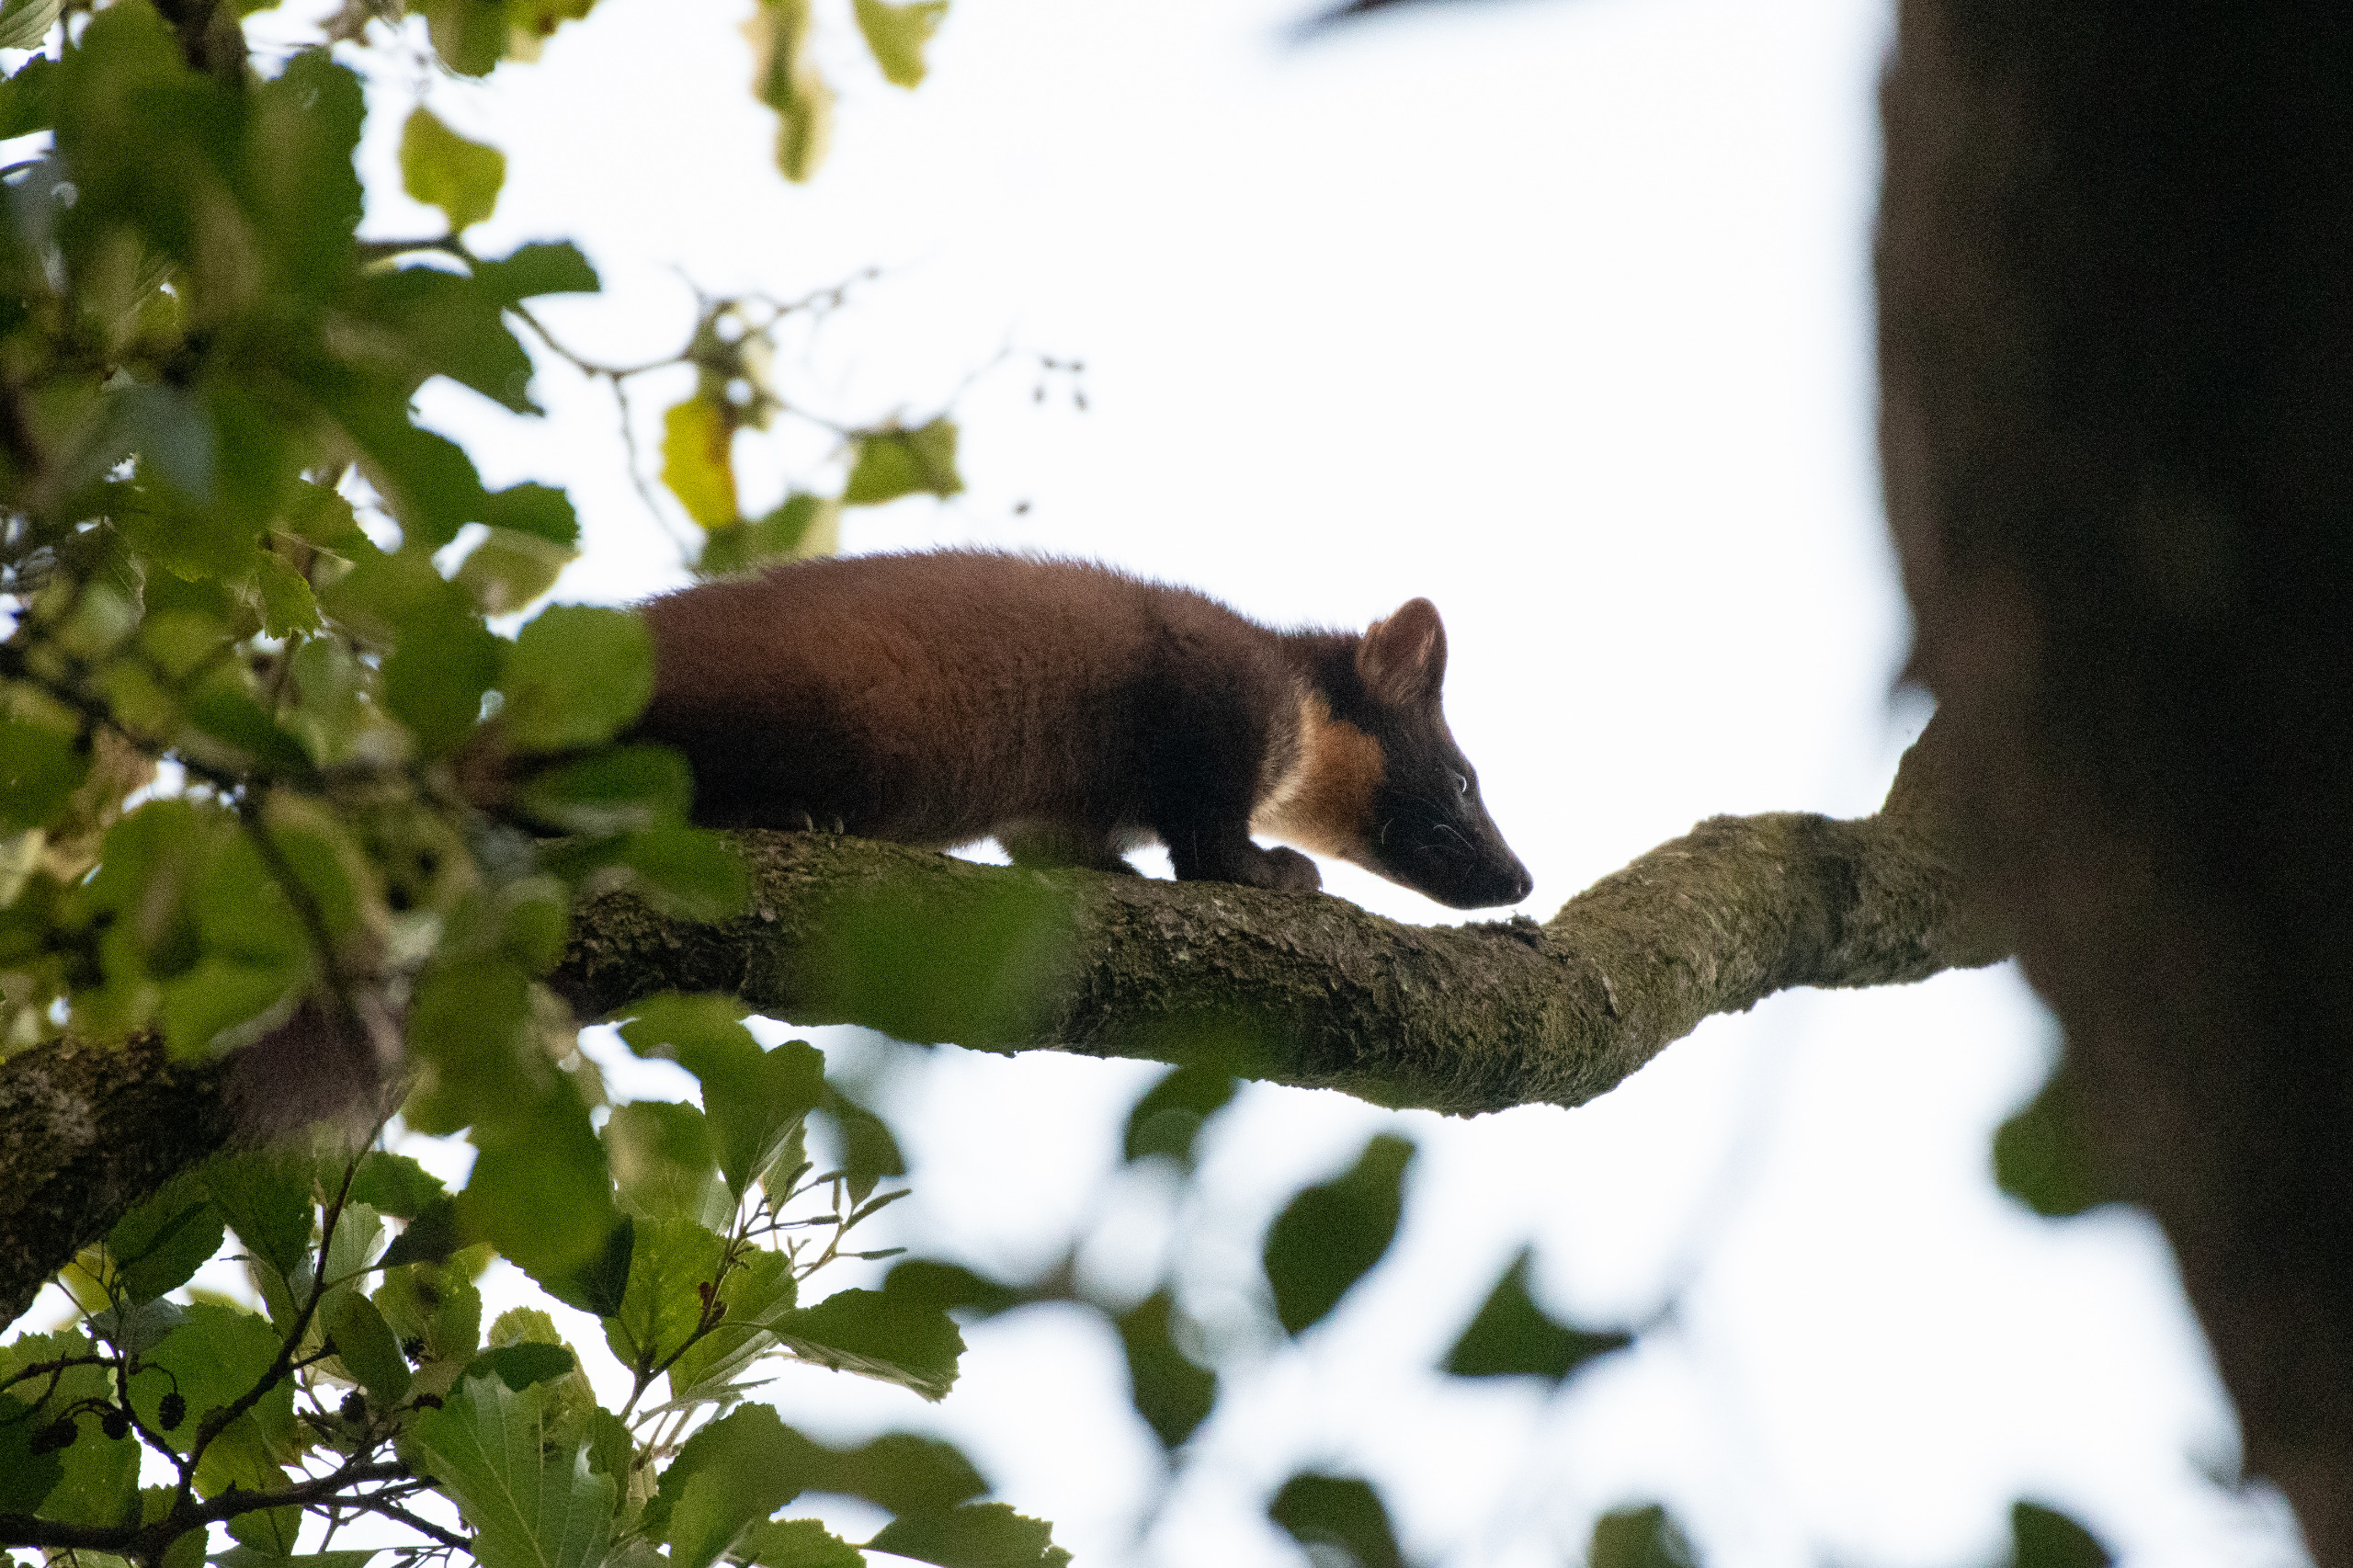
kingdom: Animalia
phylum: Chordata
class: Mammalia
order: Carnivora
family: Mustelidae
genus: Martes
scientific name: Martes martes
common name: Skovmår
